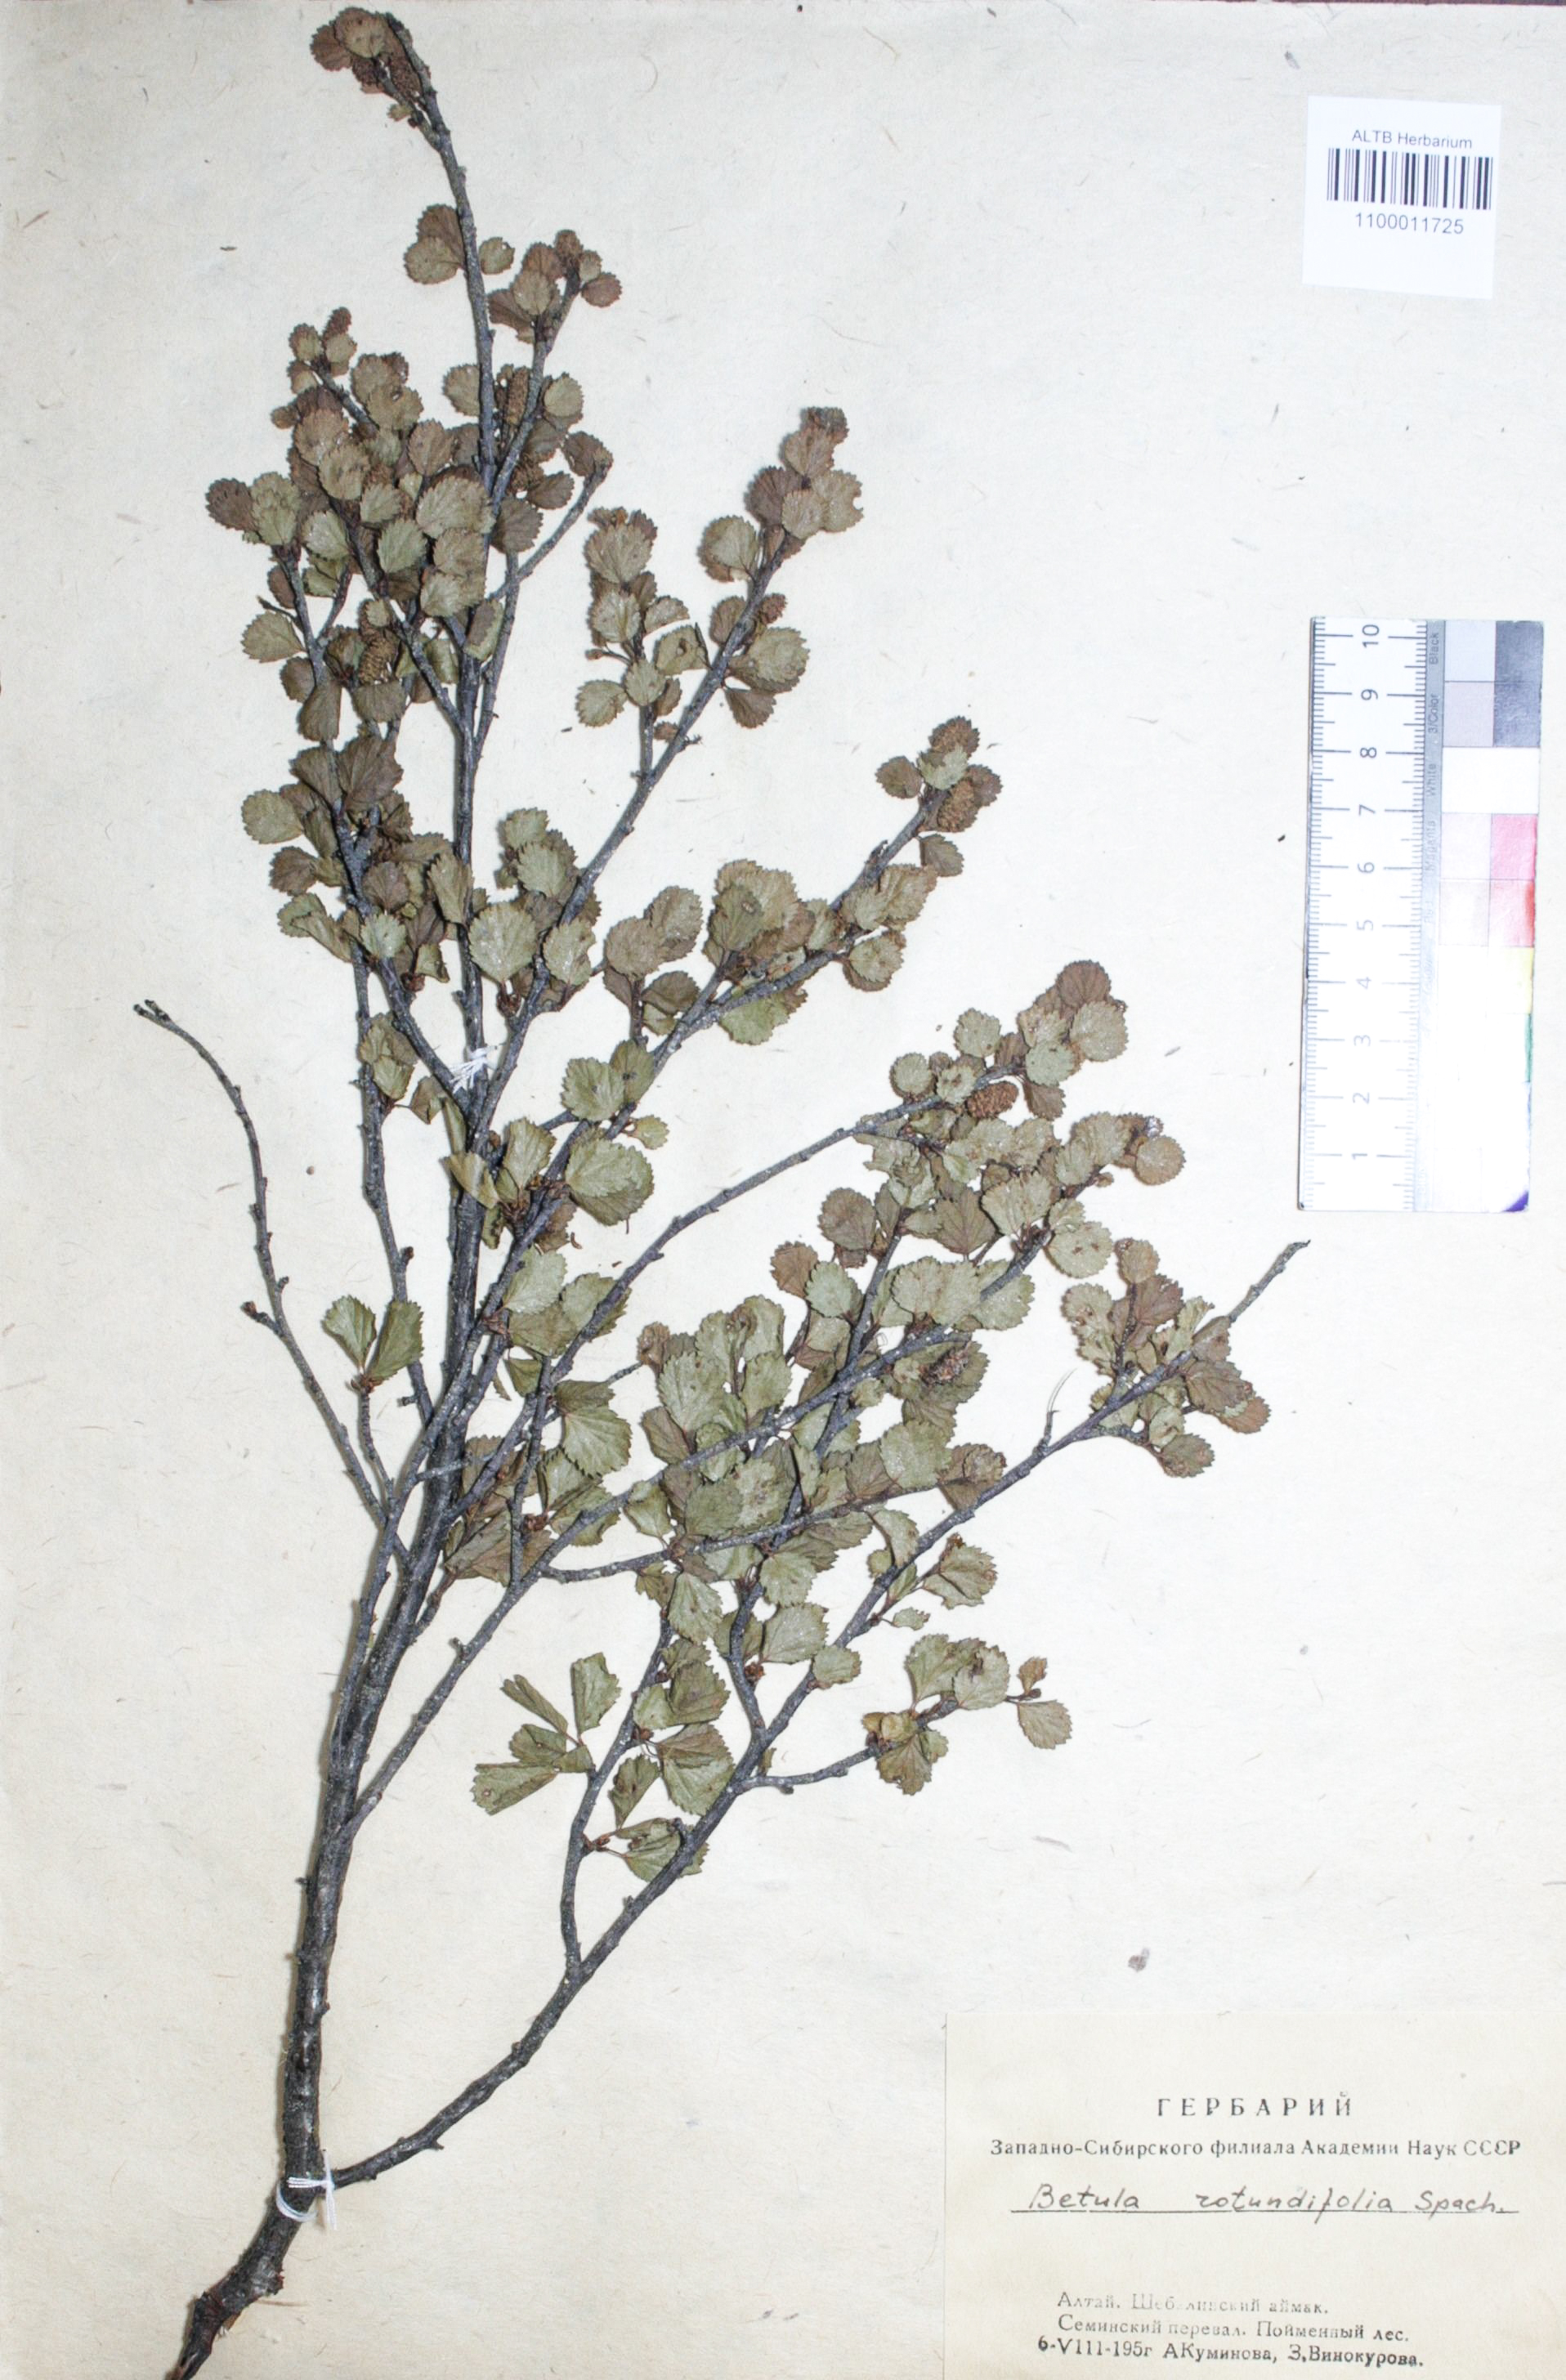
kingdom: Plantae
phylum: Tracheophyta
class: Magnoliopsida
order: Fagales
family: Betulaceae
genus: Betula
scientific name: Betula glandulosa
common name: Dwarf birch
